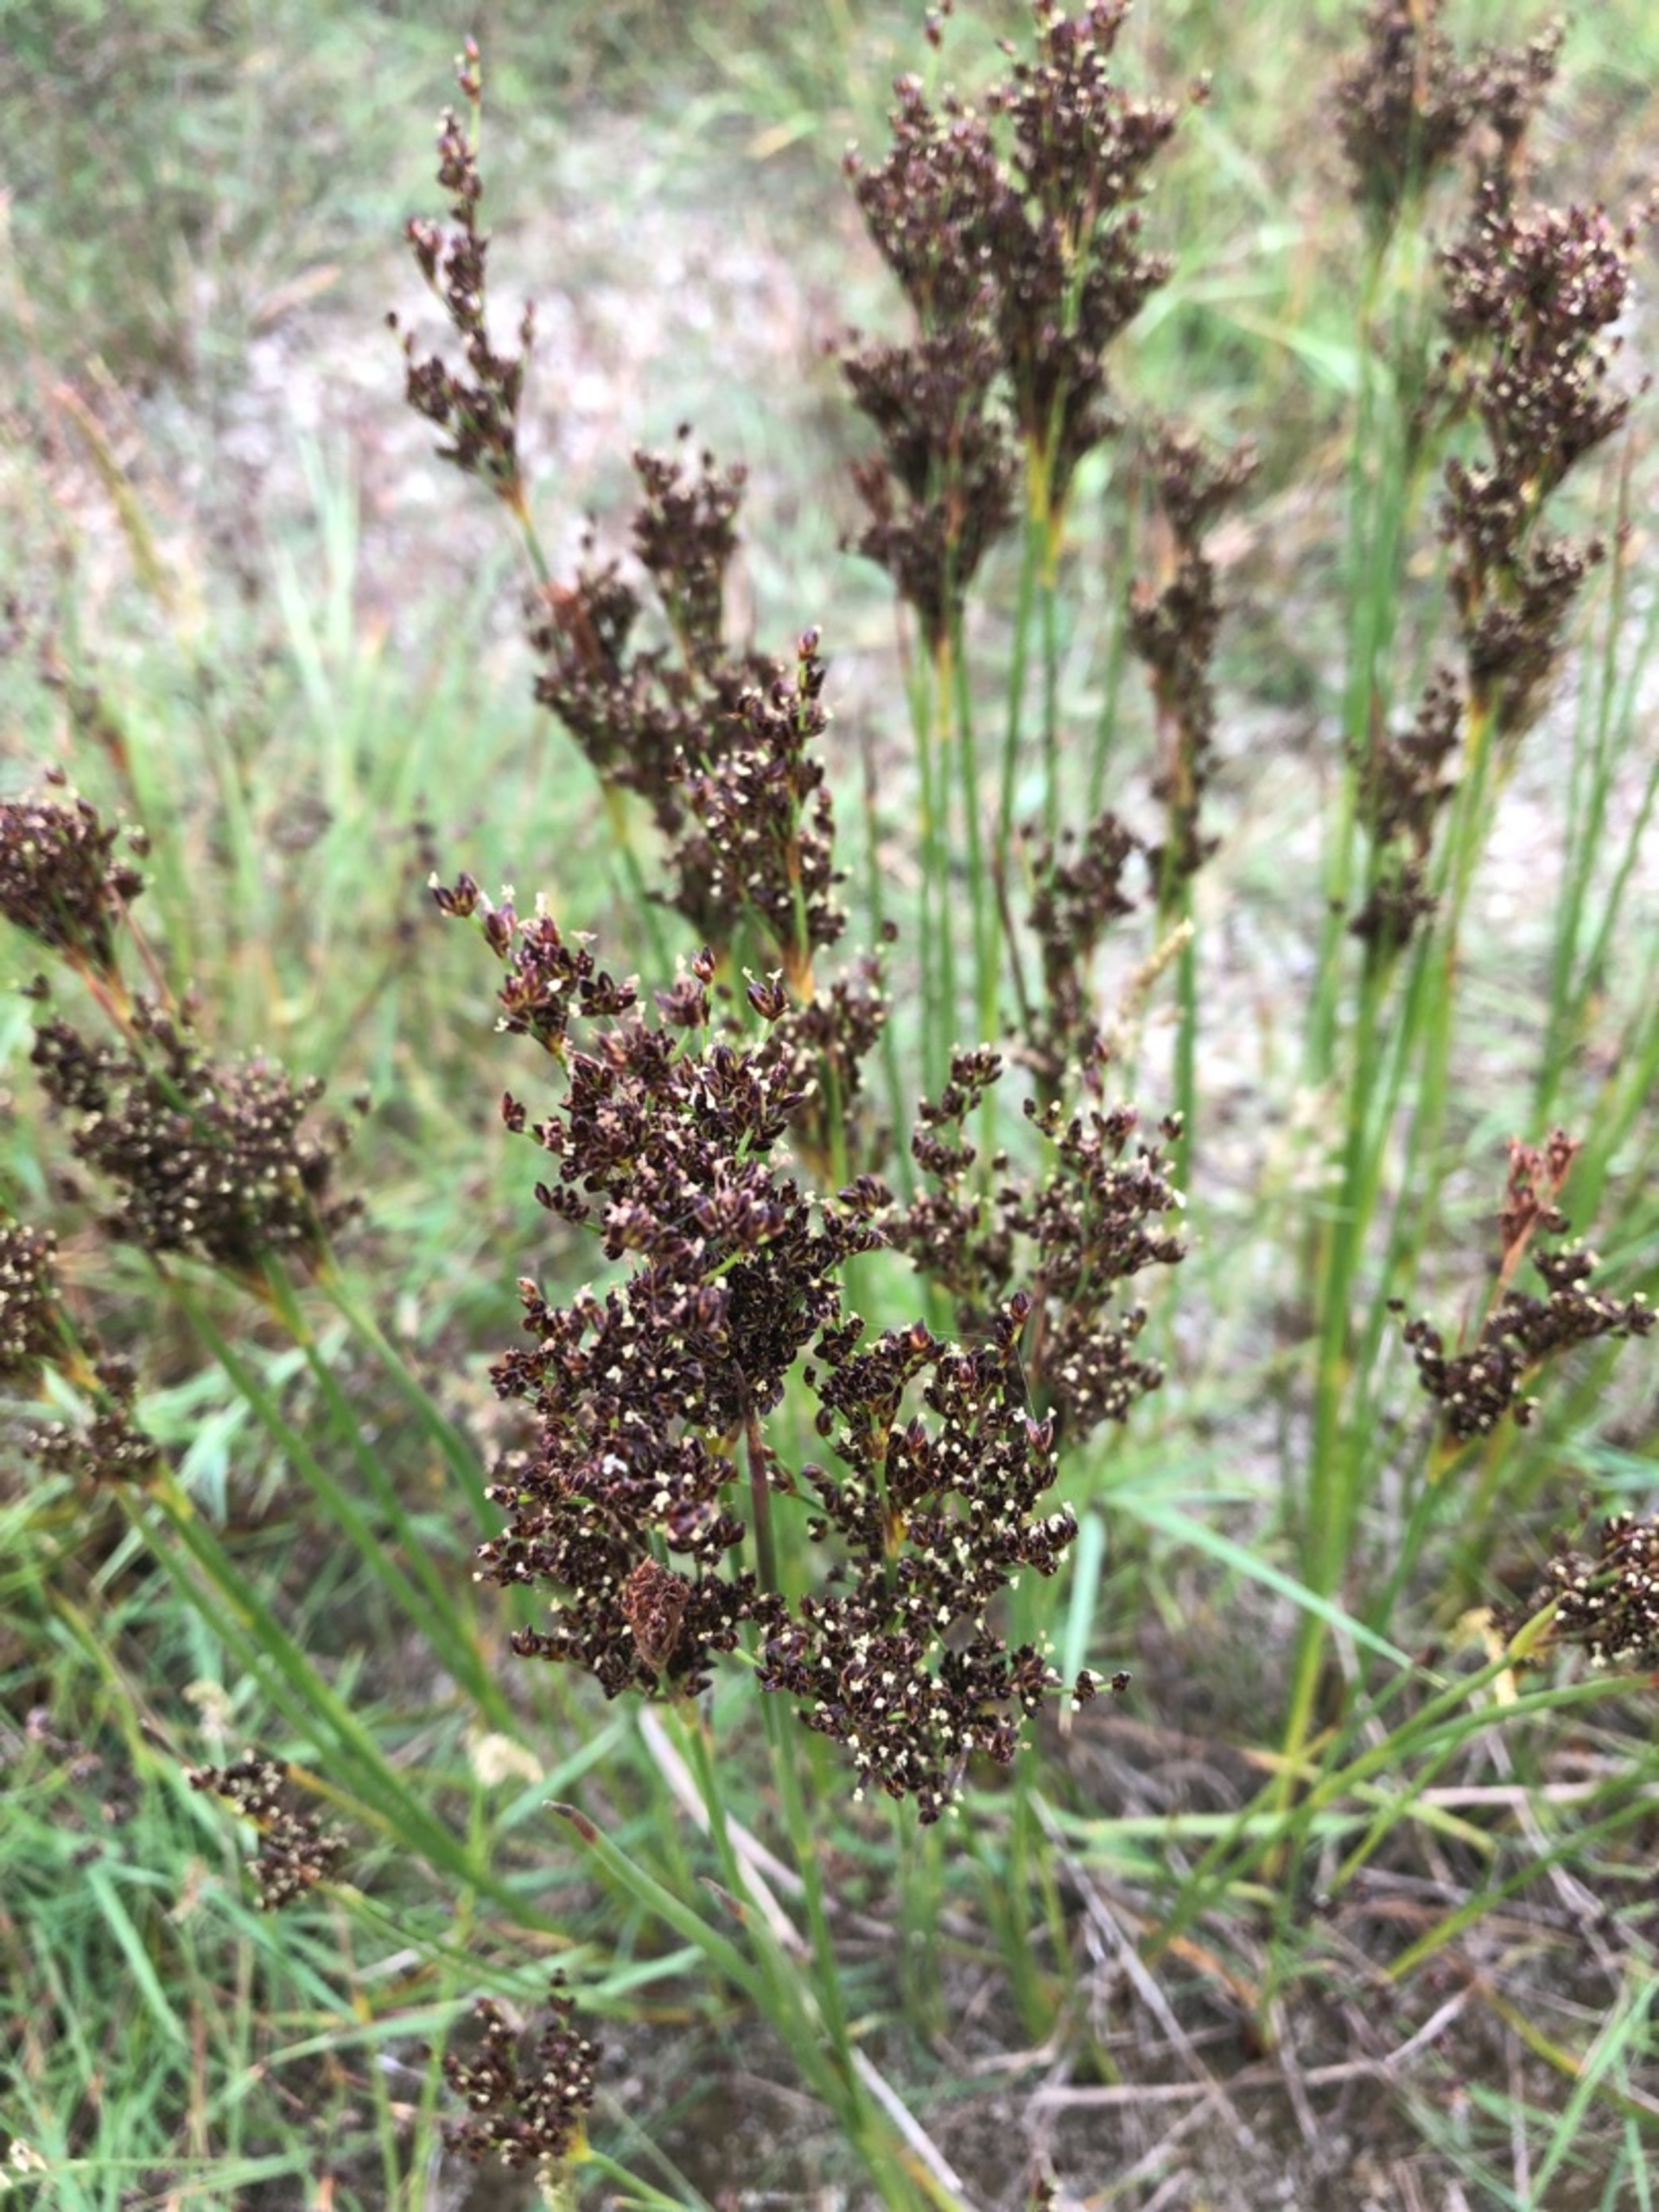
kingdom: Plantae
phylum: Tracheophyta
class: Liliopsida
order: Poales
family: Juncaceae
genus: Juncus
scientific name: Juncus anceps
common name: Sand-siv
